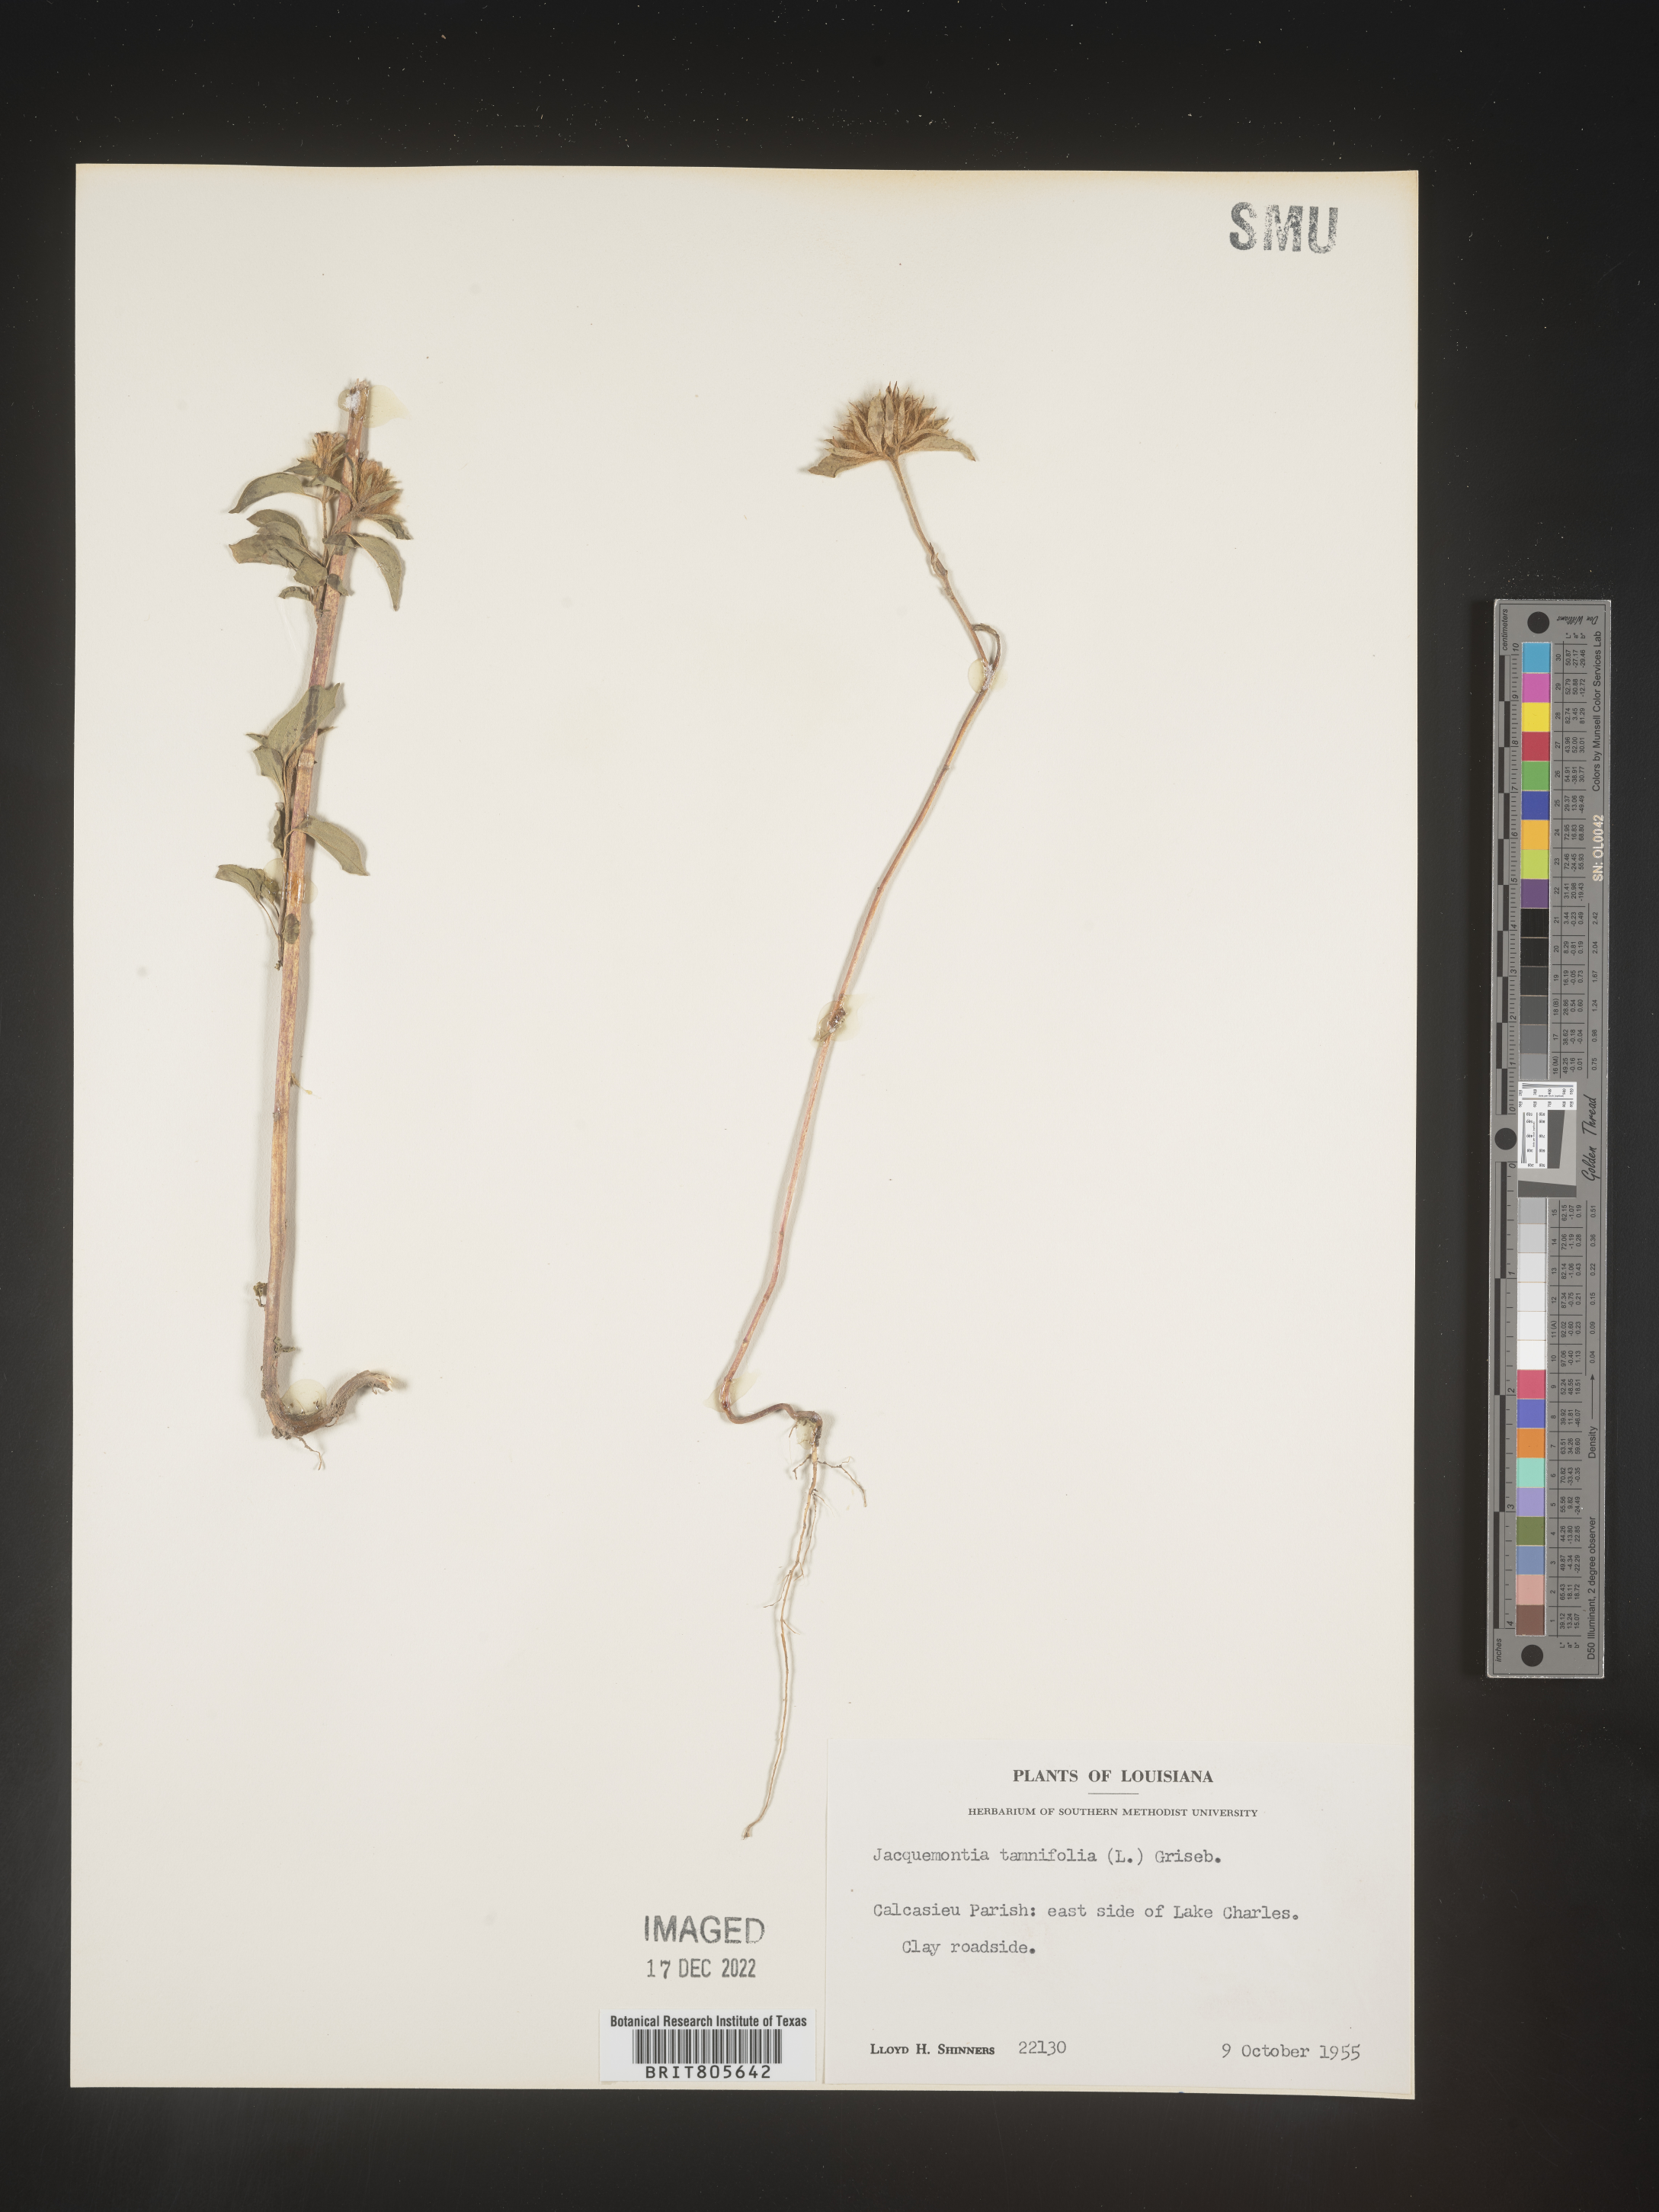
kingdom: Plantae
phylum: Tracheophyta
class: Magnoliopsida
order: Solanales
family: Convolvulaceae
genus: Jacquemontia
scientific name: Jacquemontia tamnifolia
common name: Hairy clustervine
